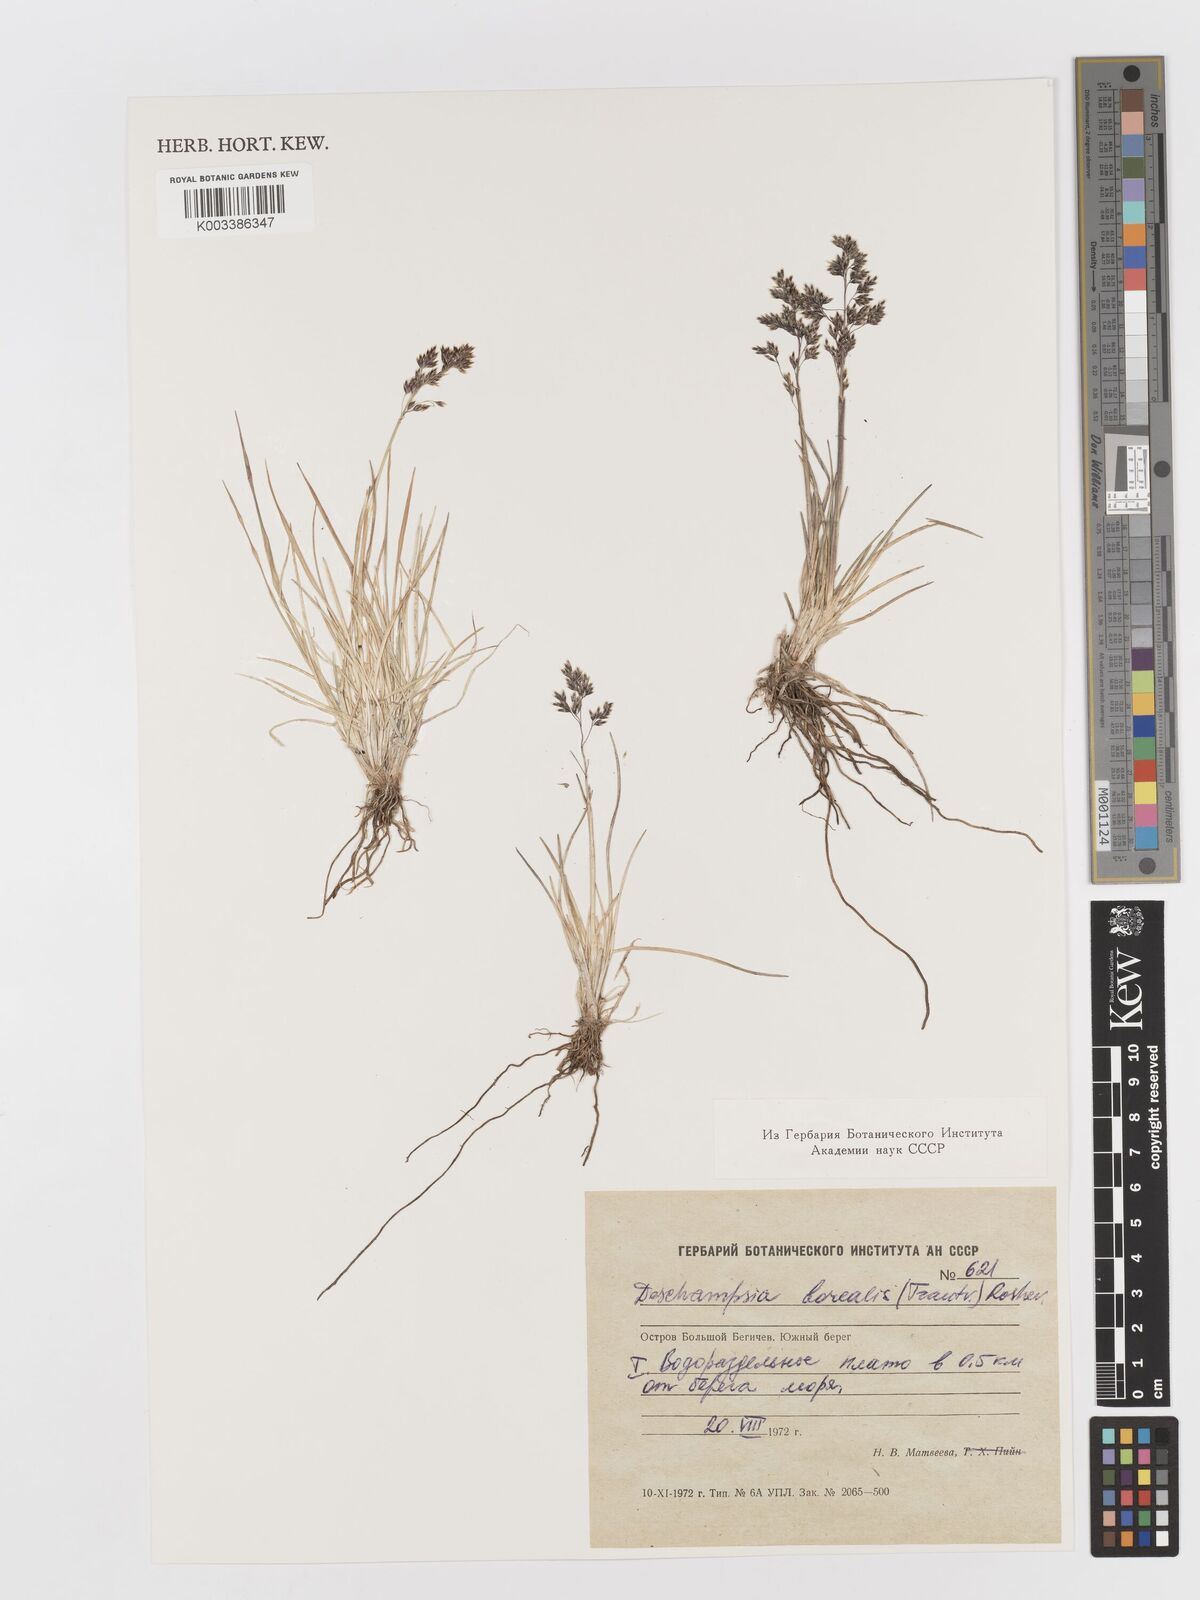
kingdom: Plantae
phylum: Tracheophyta
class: Liliopsida
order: Poales
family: Poaceae
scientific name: Poaceae
